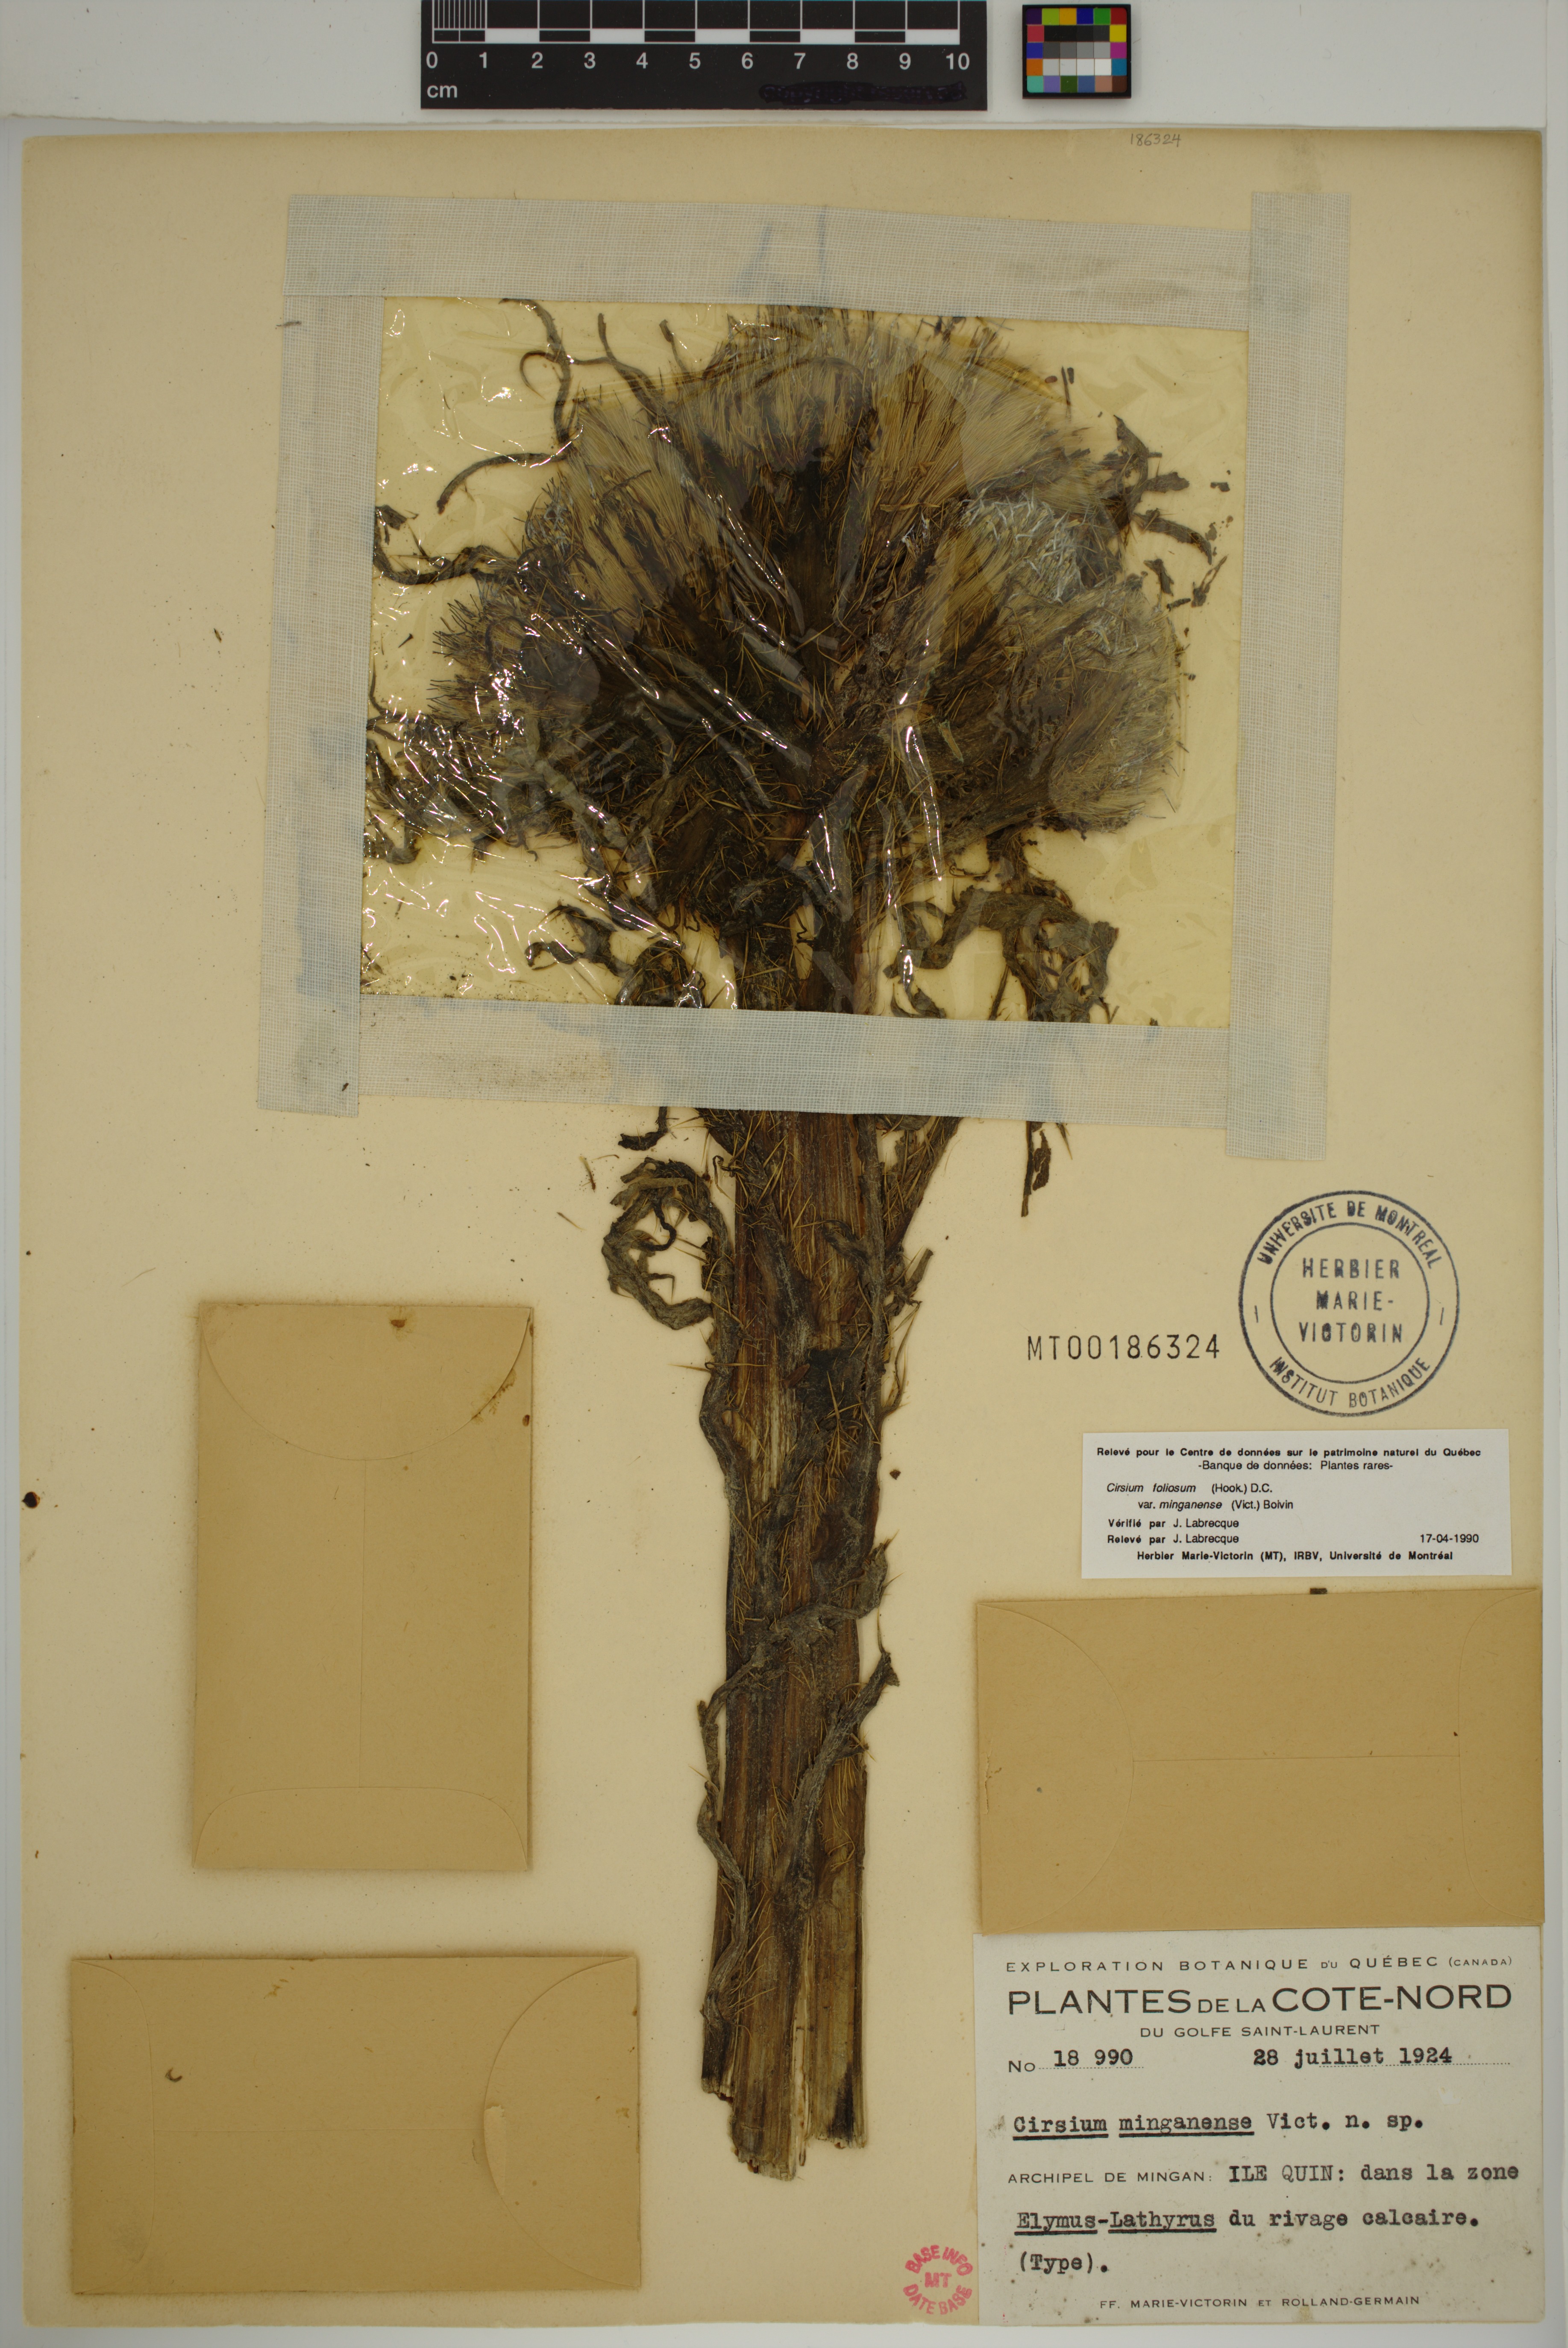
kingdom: Plantae
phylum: Tracheophyta
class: Magnoliopsida
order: Asterales
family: Asteraceae
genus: Cirsium
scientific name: Cirsium scariosum
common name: Meadow thistle
